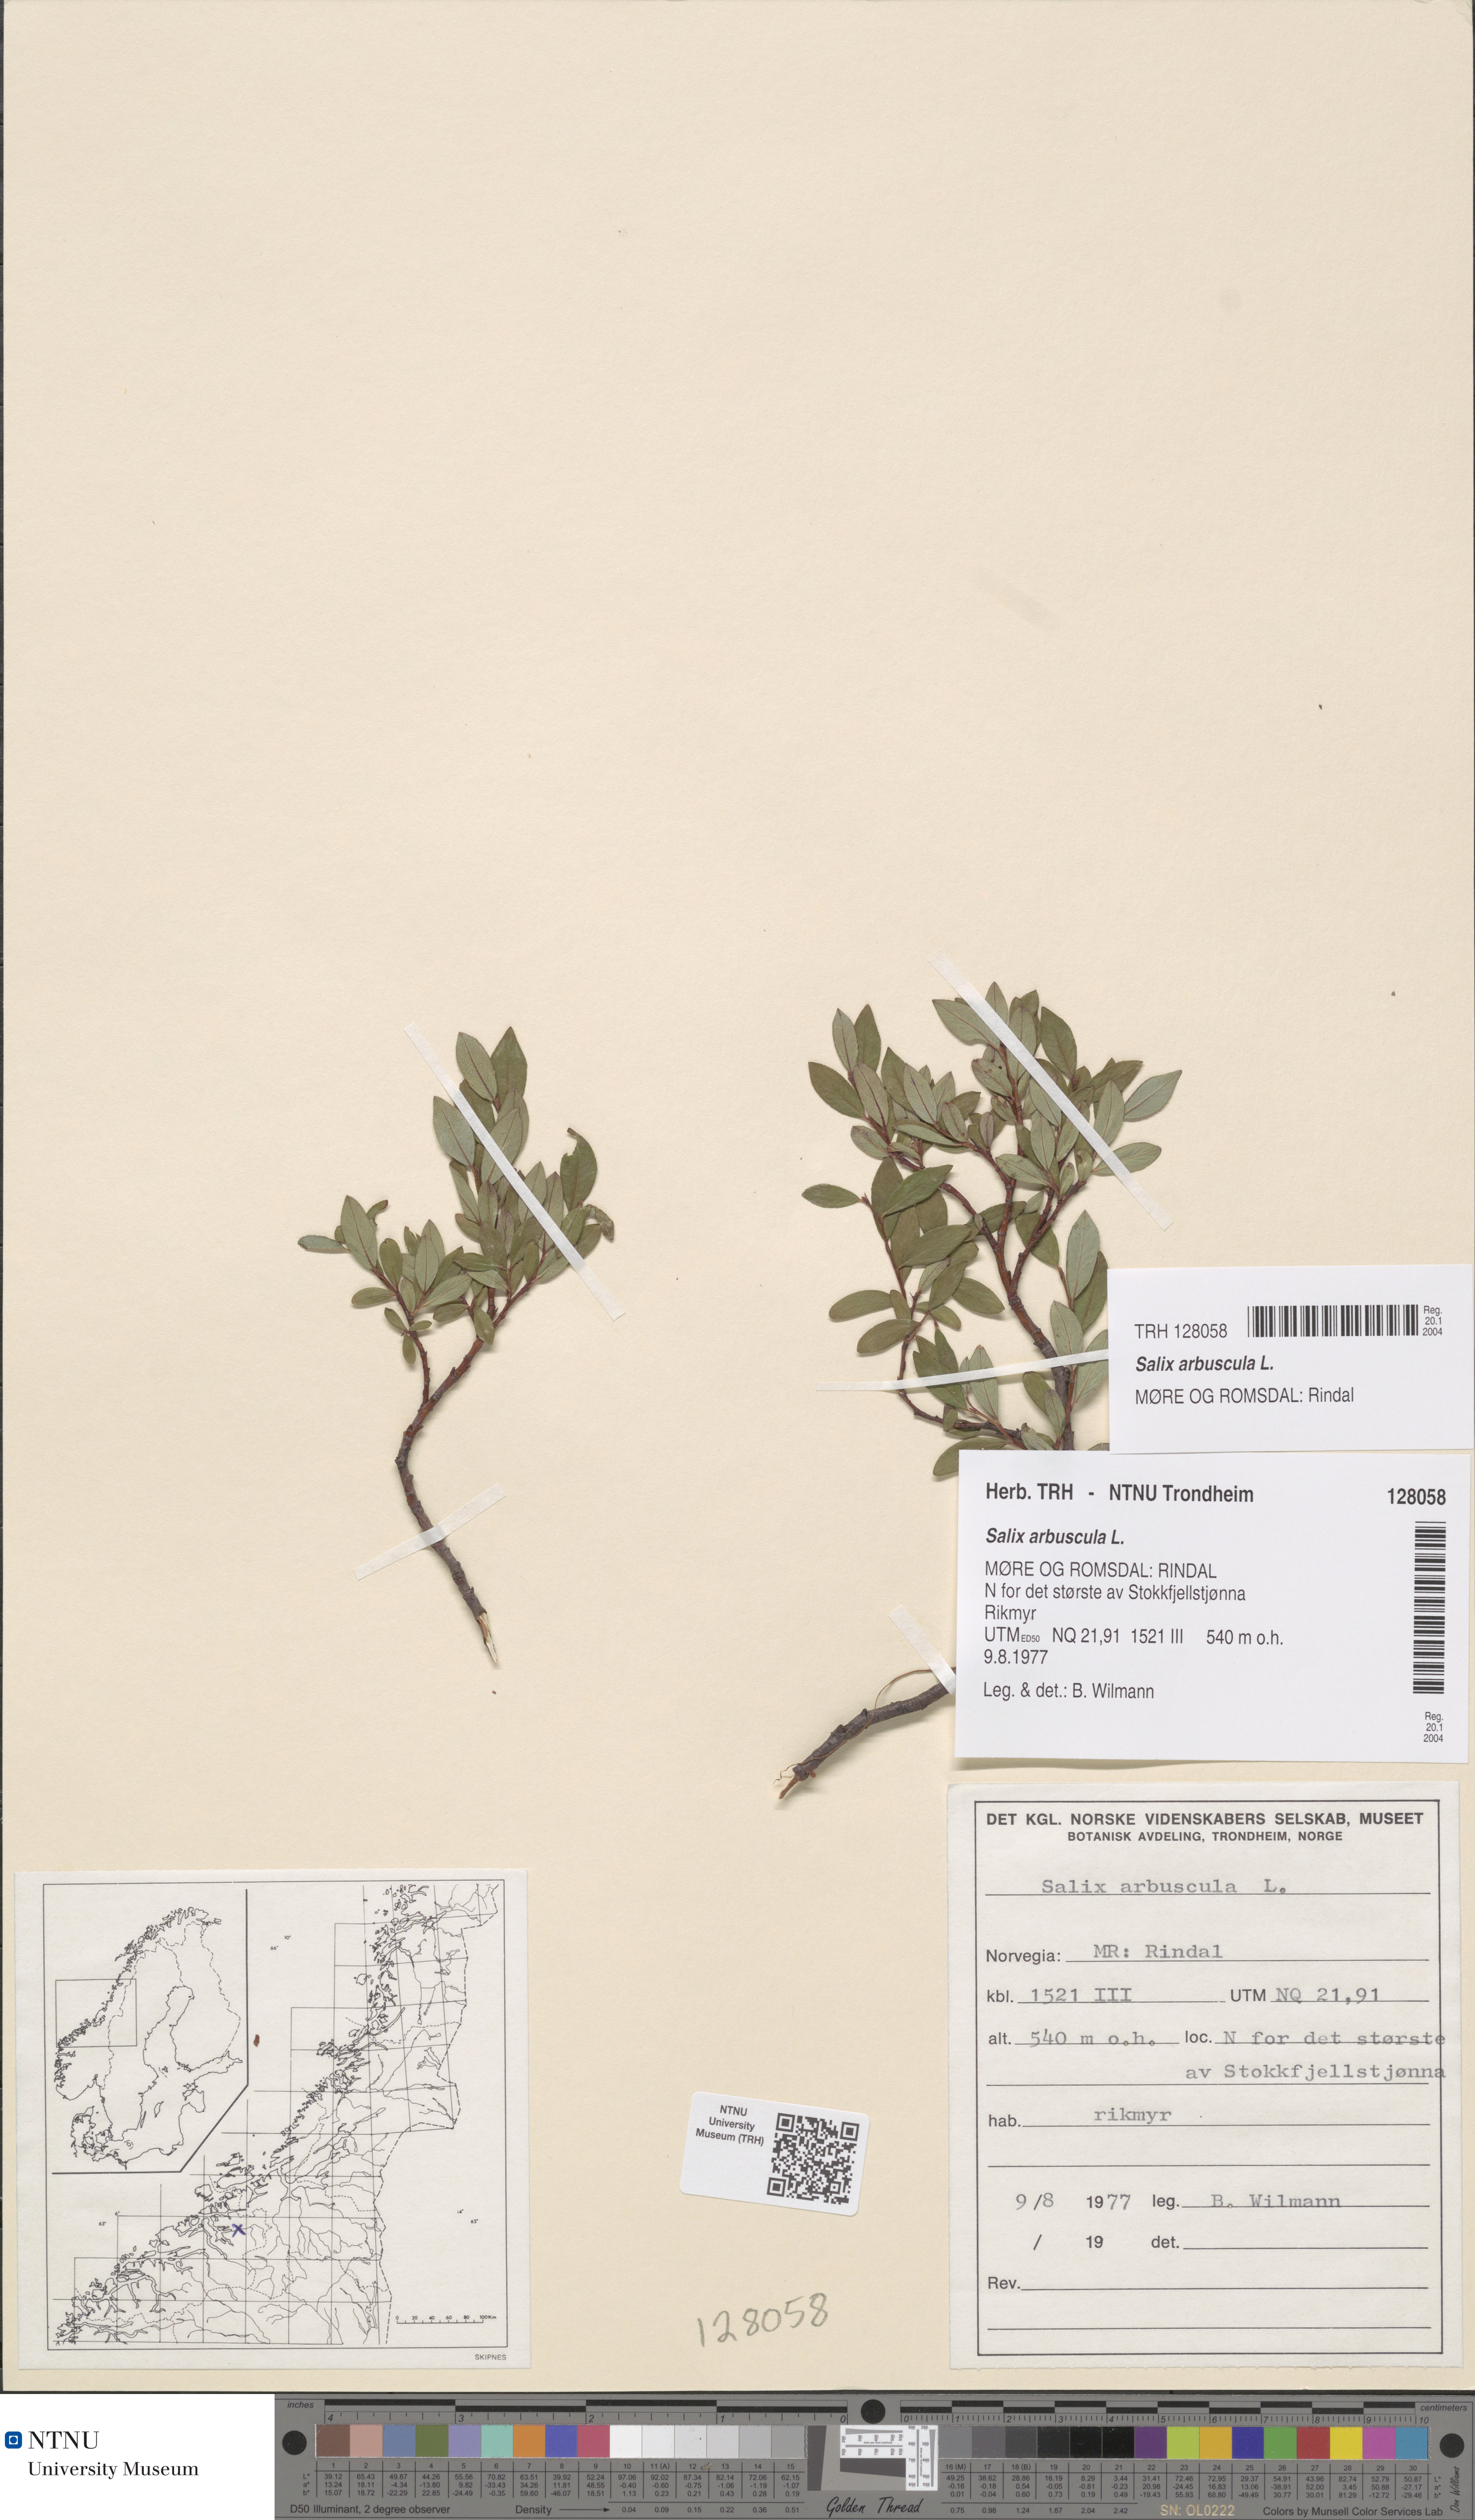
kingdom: Plantae
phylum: Tracheophyta
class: Magnoliopsida
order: Malpighiales
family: Salicaceae
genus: Salix
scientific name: Salix arbuscula
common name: Mountain willow
